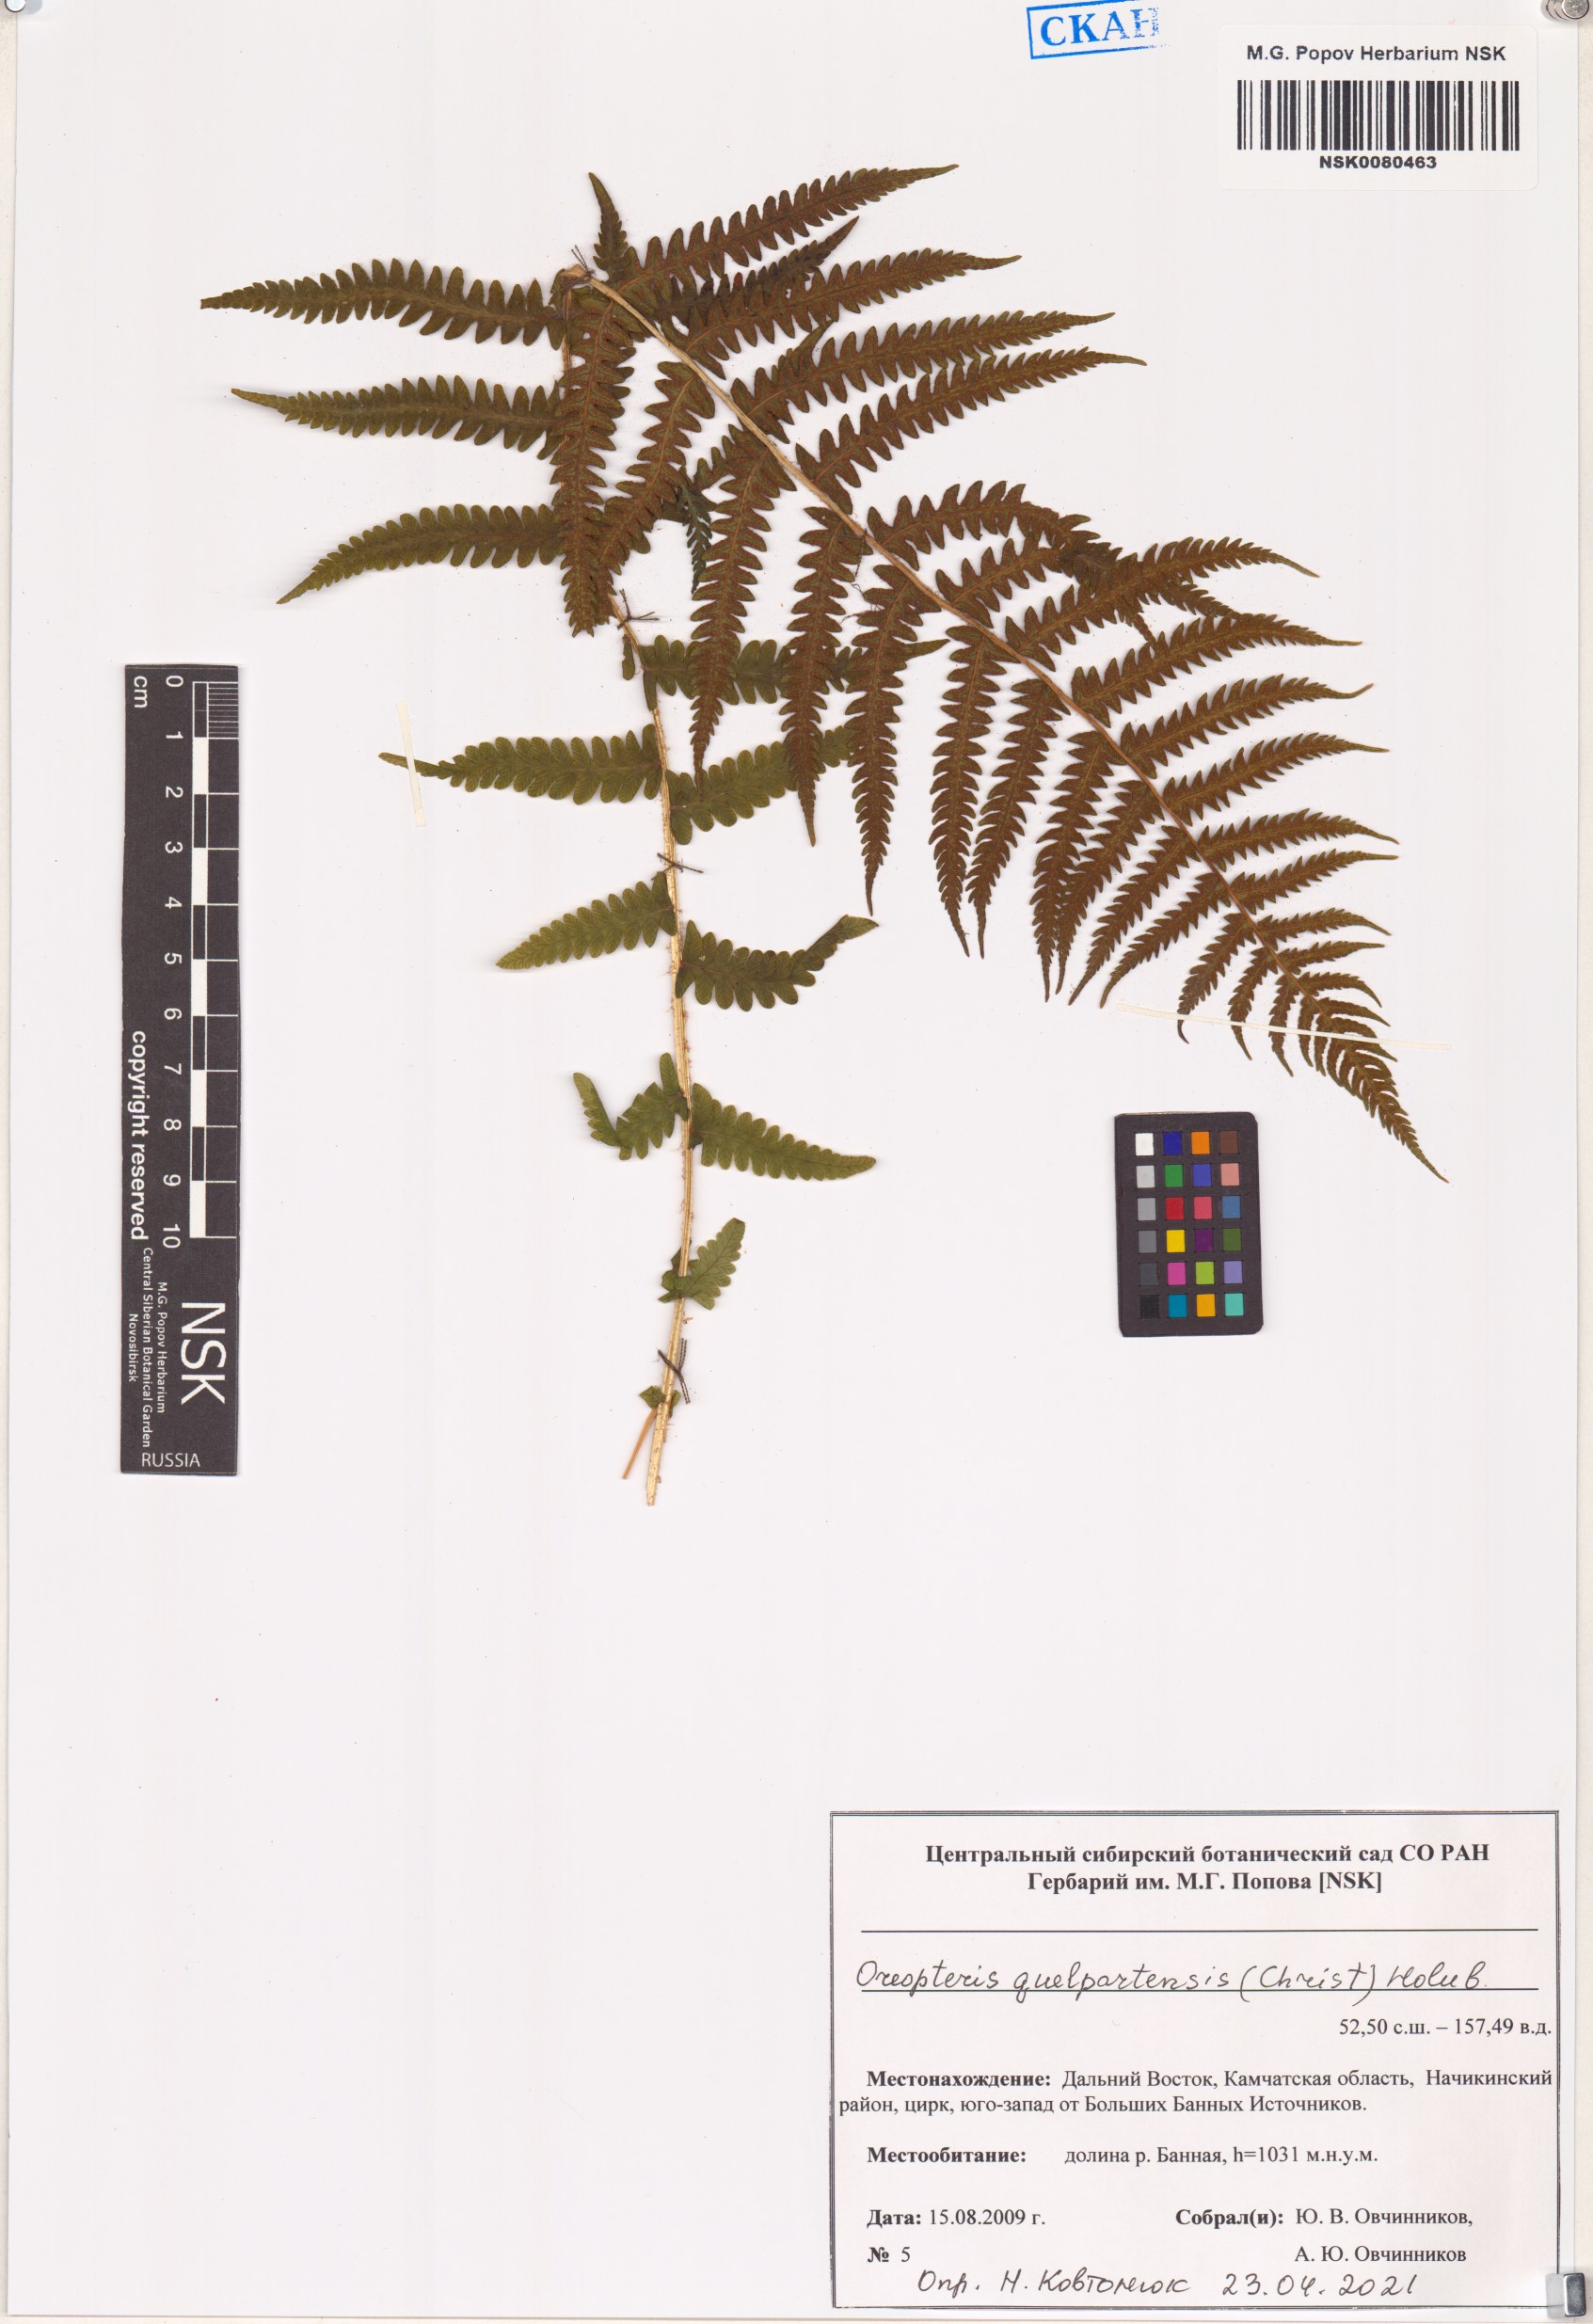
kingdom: Plantae
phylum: Tracheophyta
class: Polypodiopsida
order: Polypodiales
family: Thelypteridaceae
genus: Oreopteris
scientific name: Oreopteris quelpartensis
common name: Mountain fern
